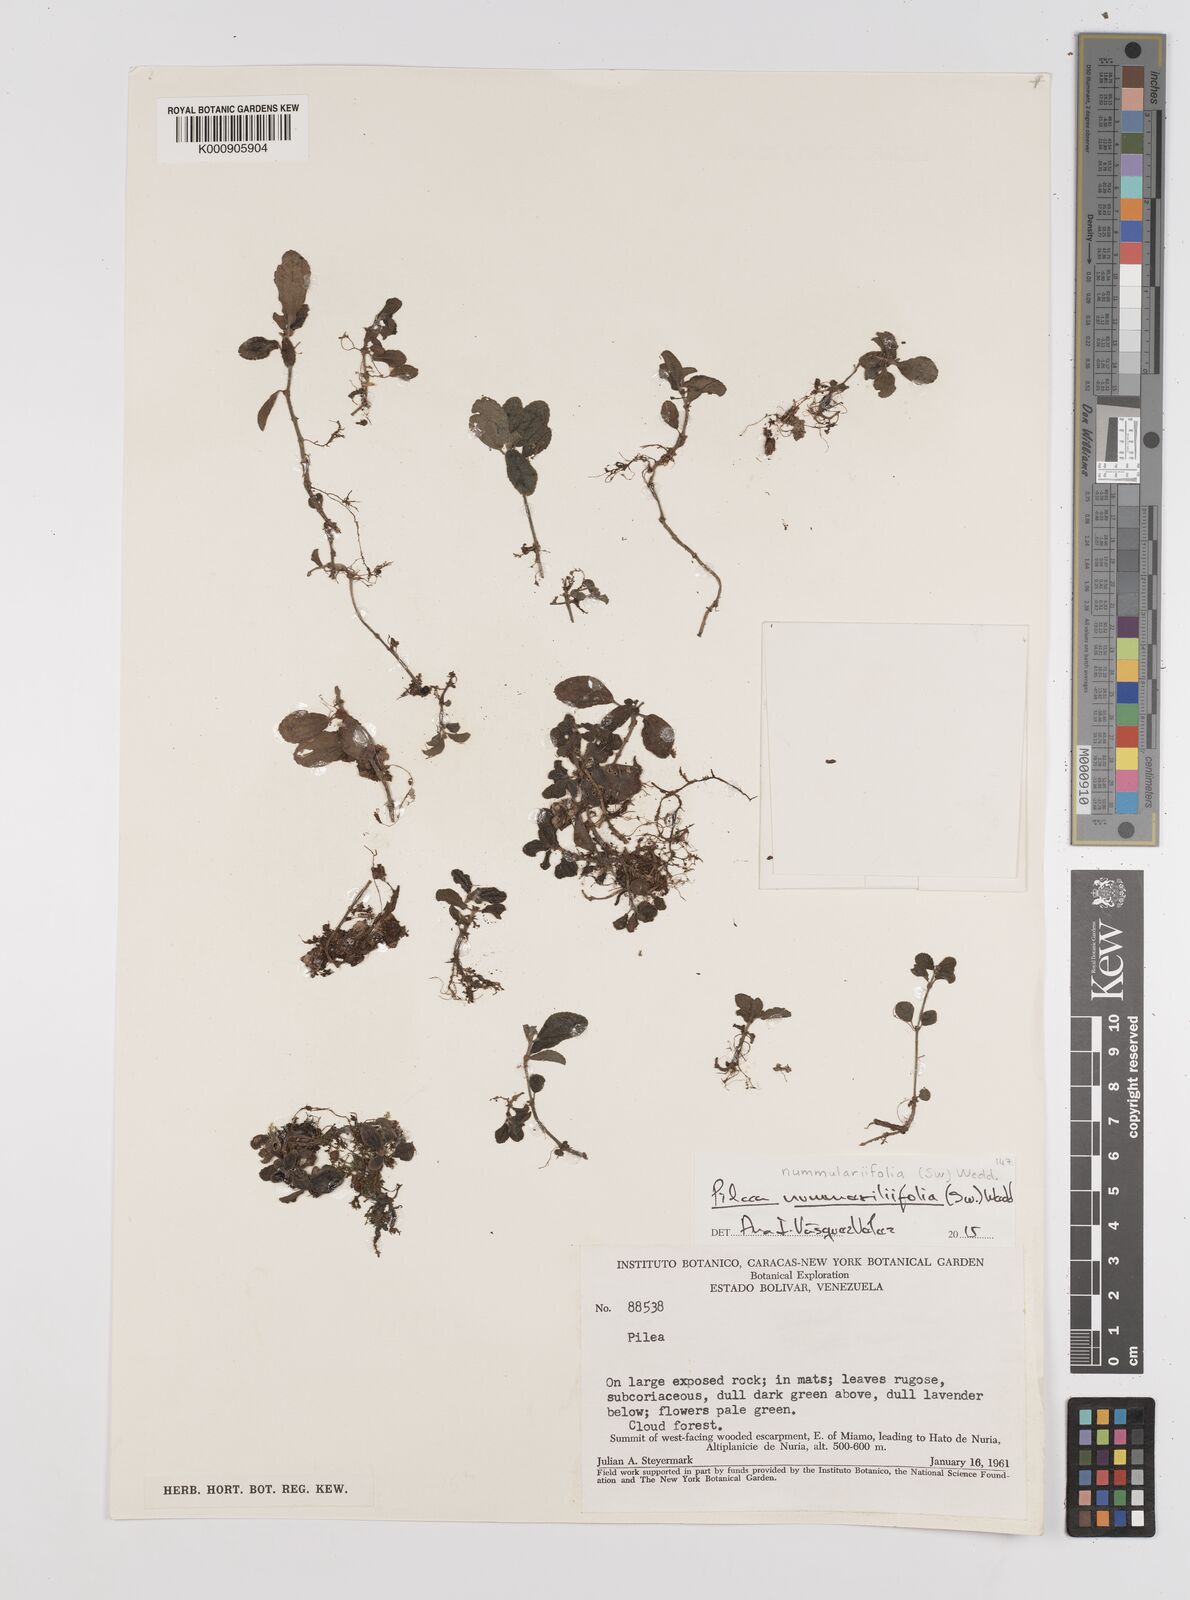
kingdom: Plantae
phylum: Tracheophyta
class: Magnoliopsida
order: Rosales
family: Urticaceae
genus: Pilea
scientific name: Pilea nummulariifolia
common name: Creeping-charlie
